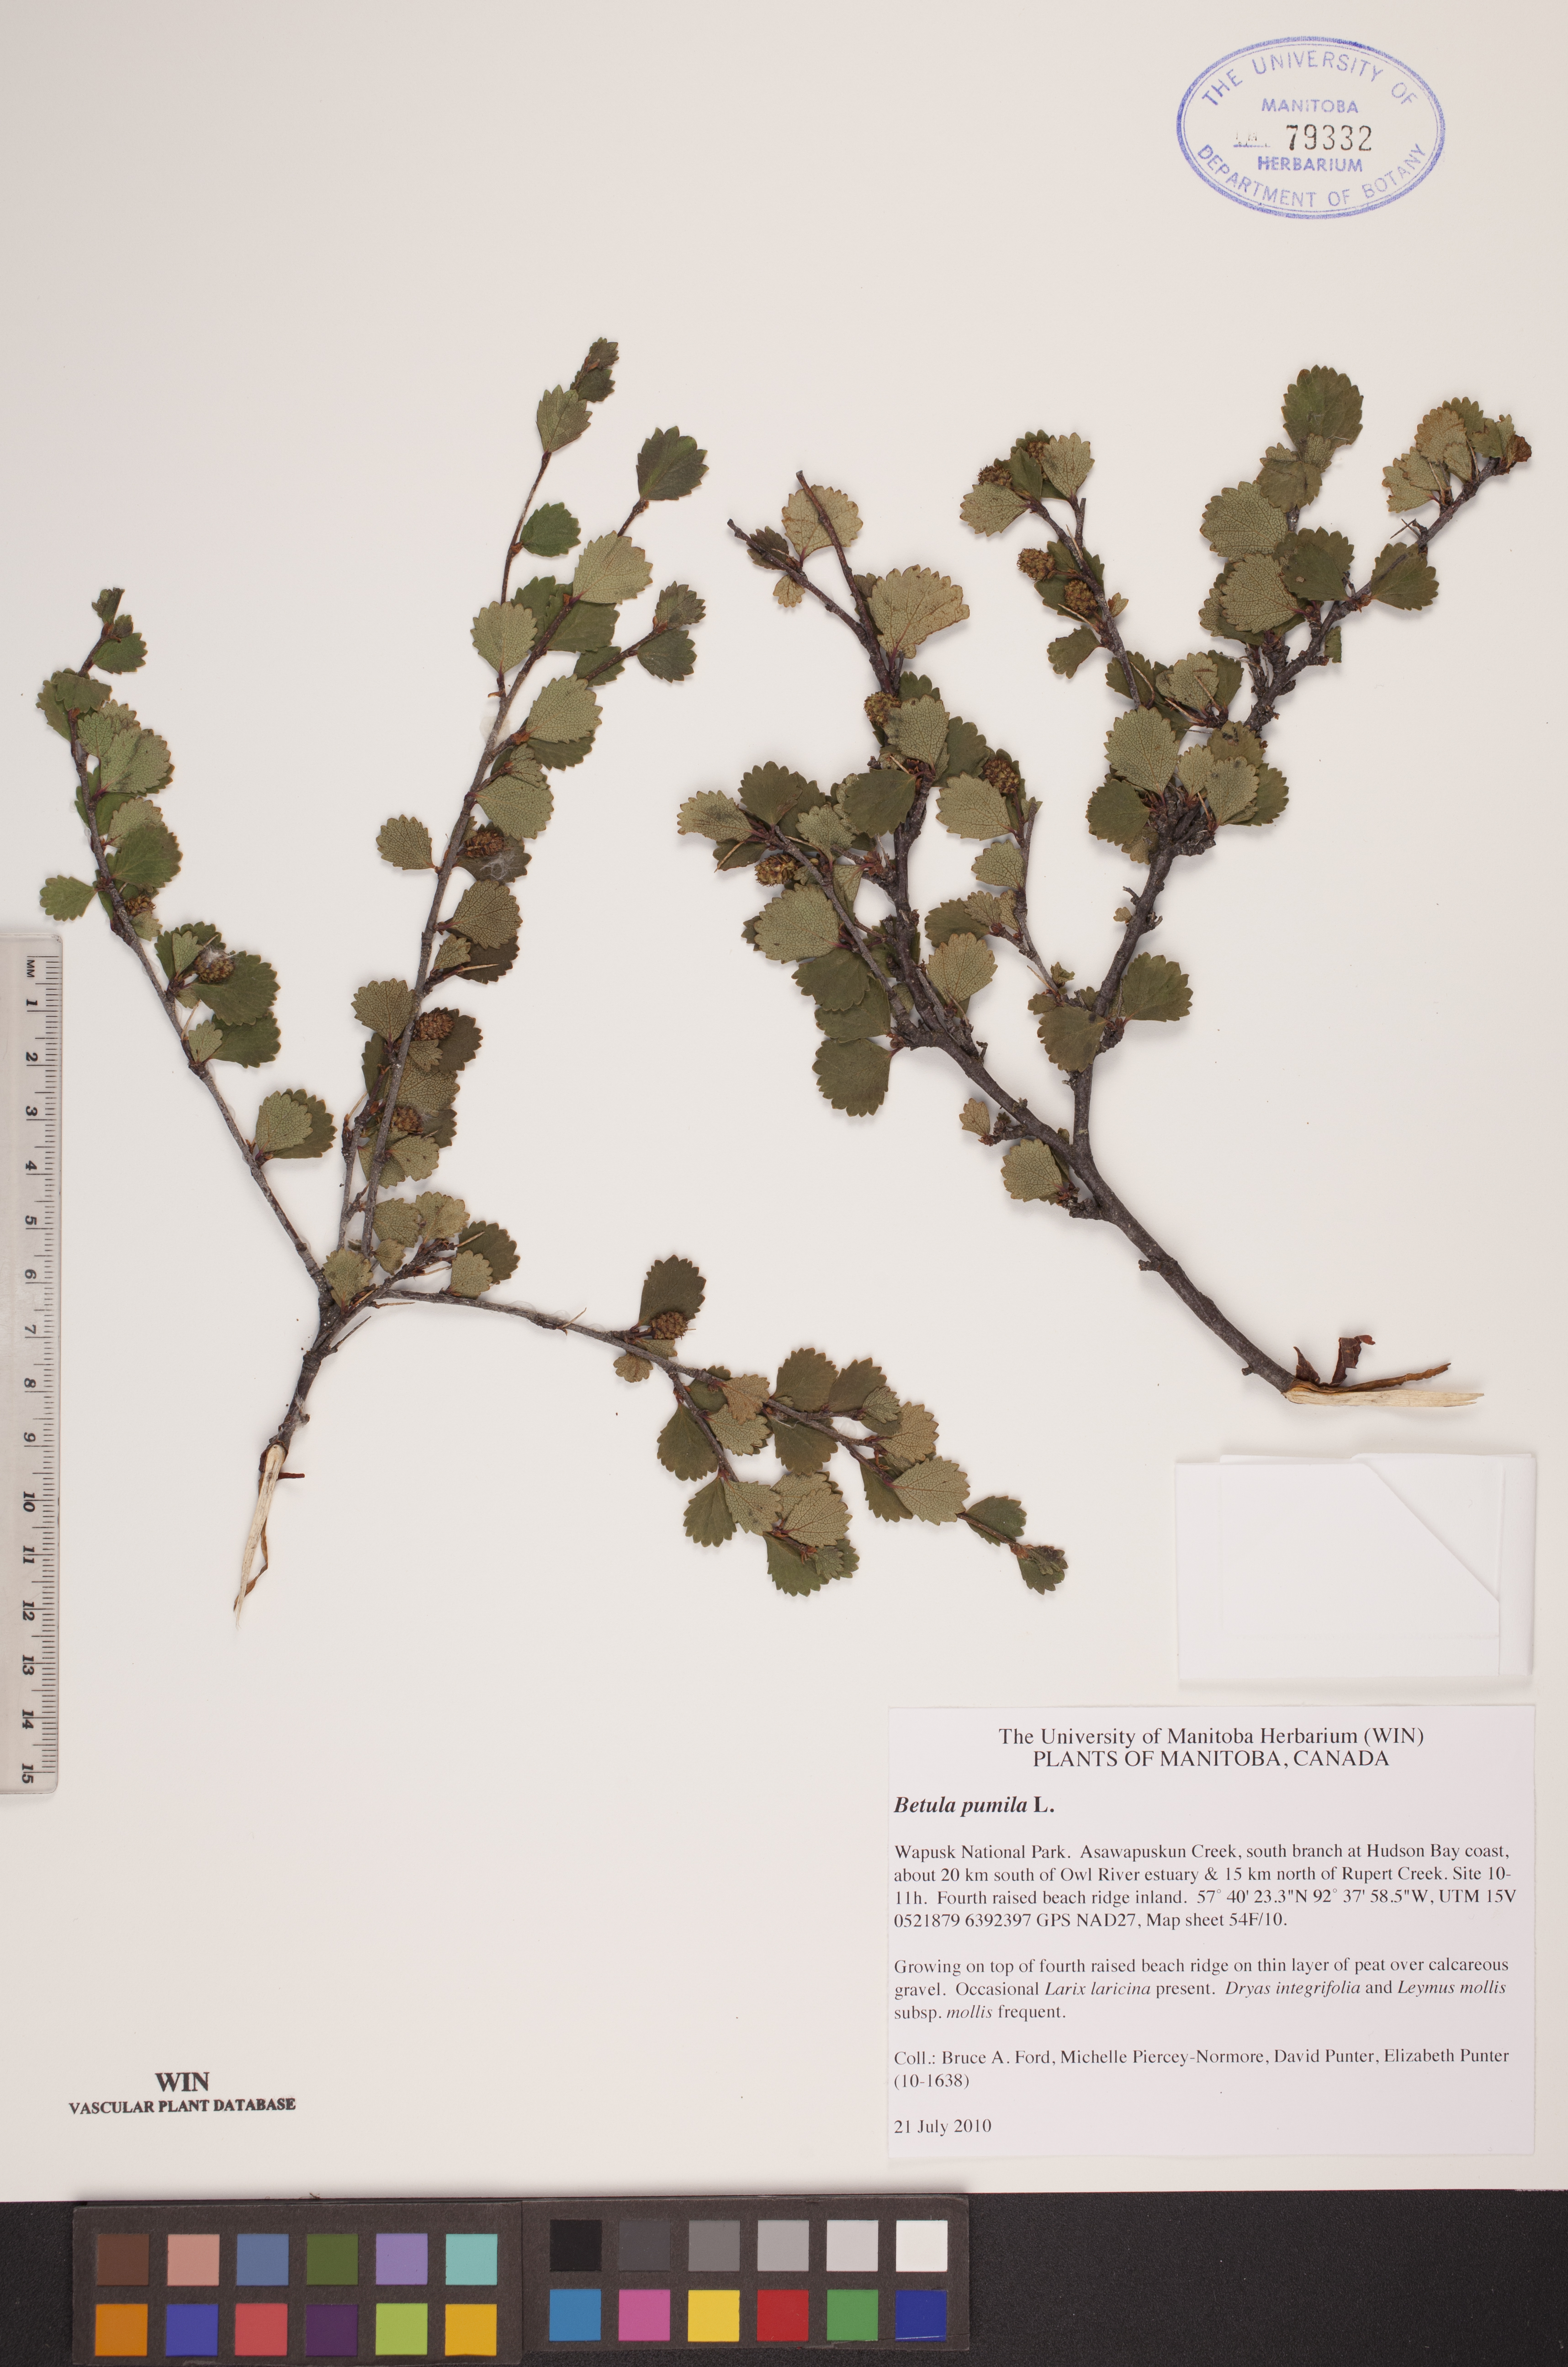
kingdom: Plantae
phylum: Tracheophyta
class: Magnoliopsida
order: Fagales
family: Betulaceae
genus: Betula
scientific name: Betula pumila
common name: Bog birch
